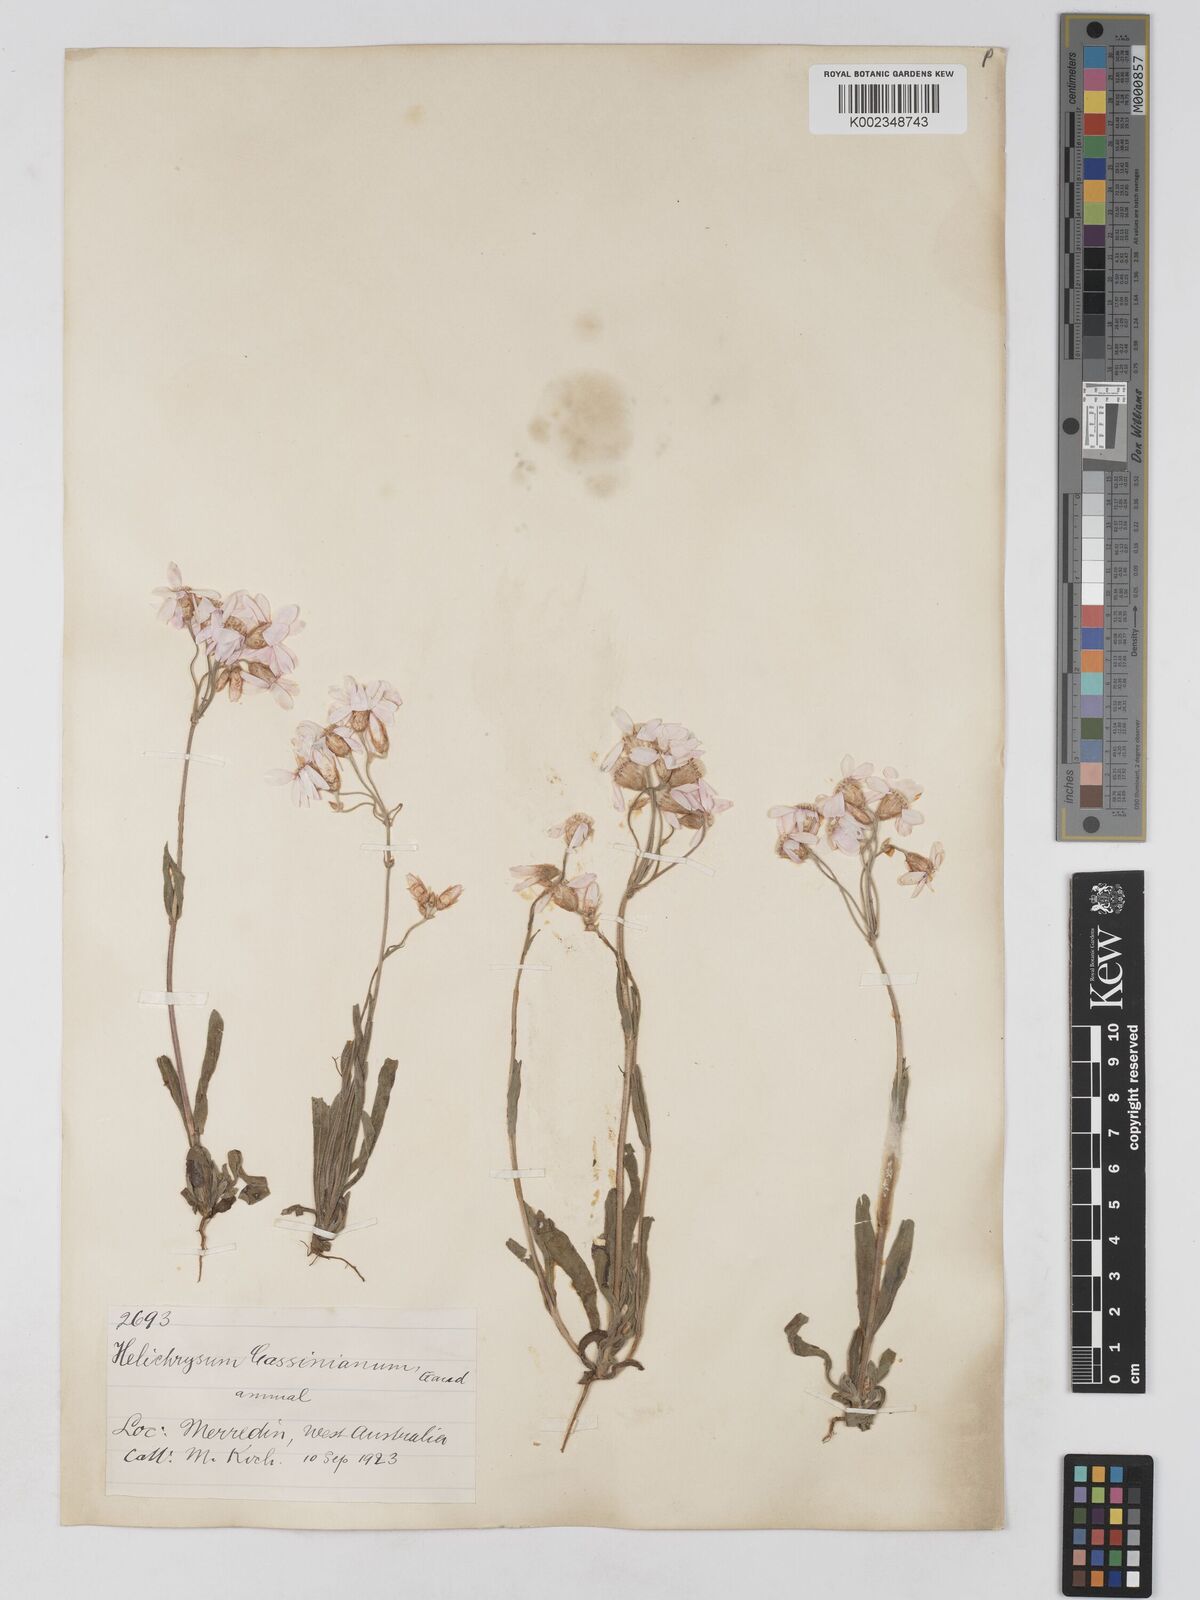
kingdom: Plantae
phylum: Tracheophyta
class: Magnoliopsida
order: Asterales
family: Asteraceae
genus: Schoenia
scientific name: Schoenia cassiniana
